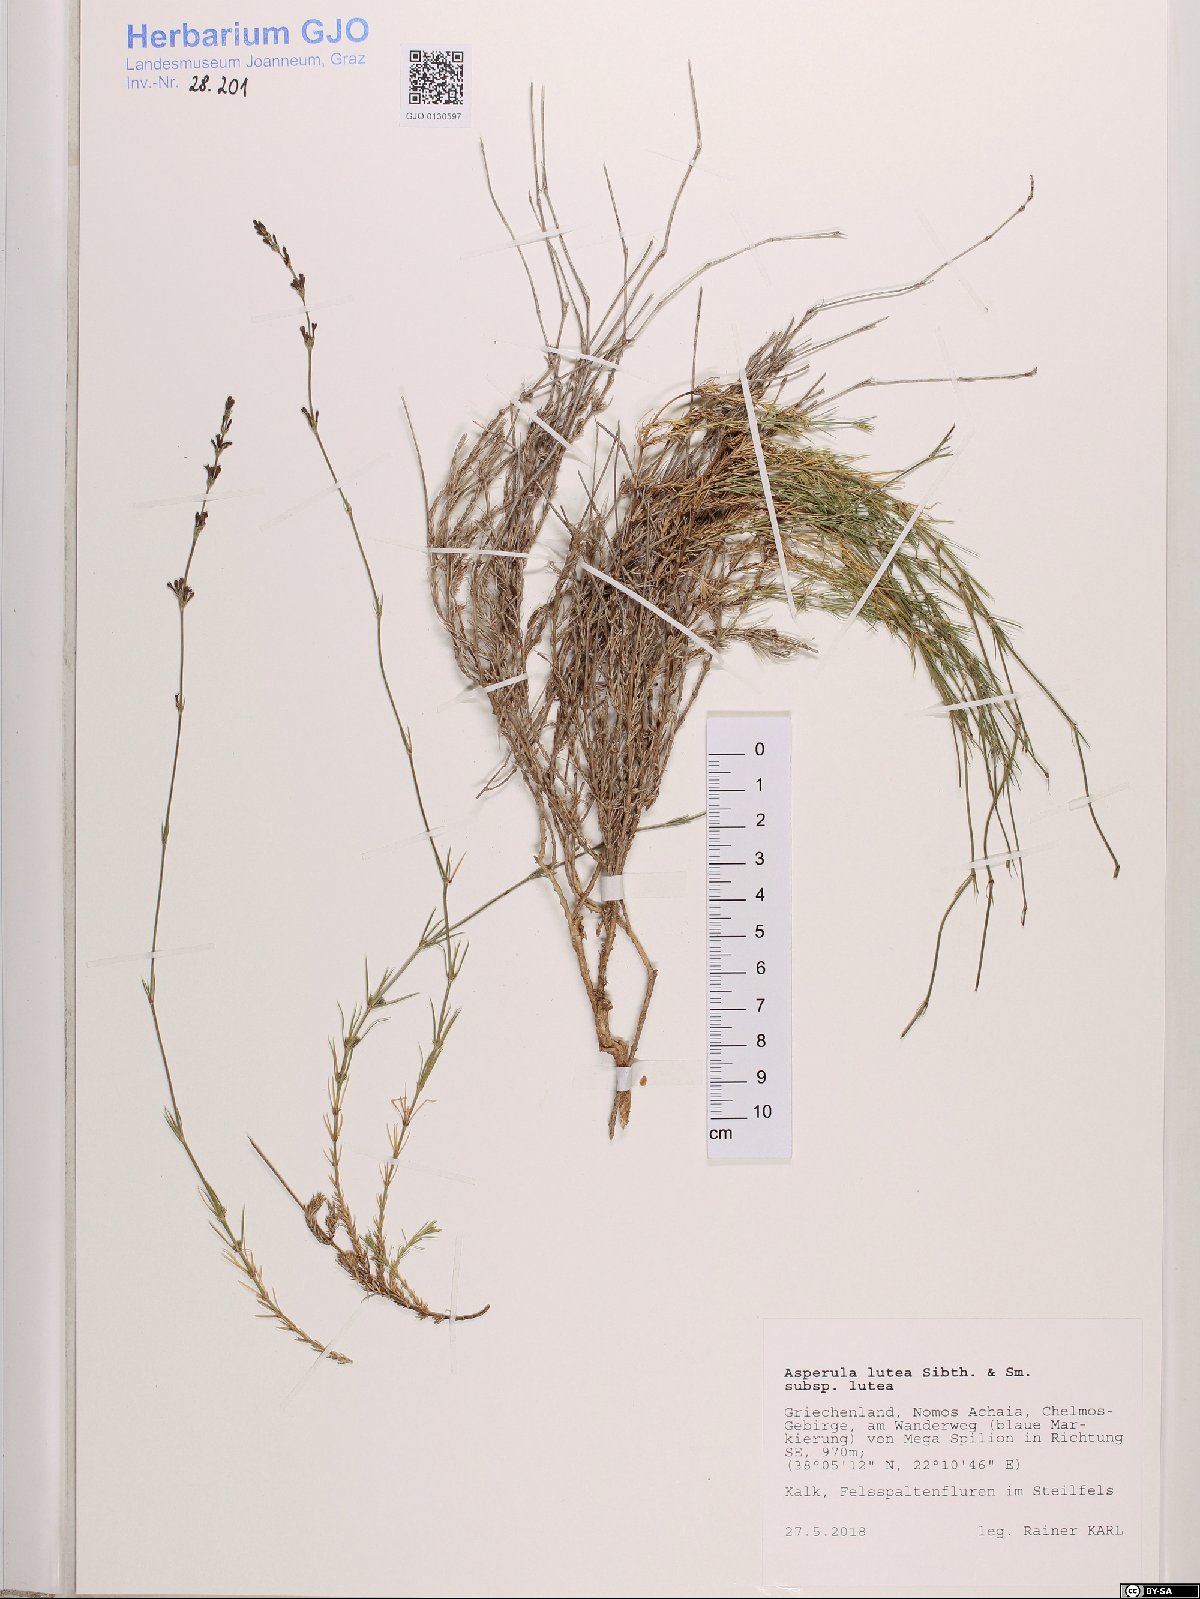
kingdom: Plantae
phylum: Tracheophyta
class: Magnoliopsida
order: Gentianales
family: Rubiaceae
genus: Cynanchica
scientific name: Cynanchica lutea
